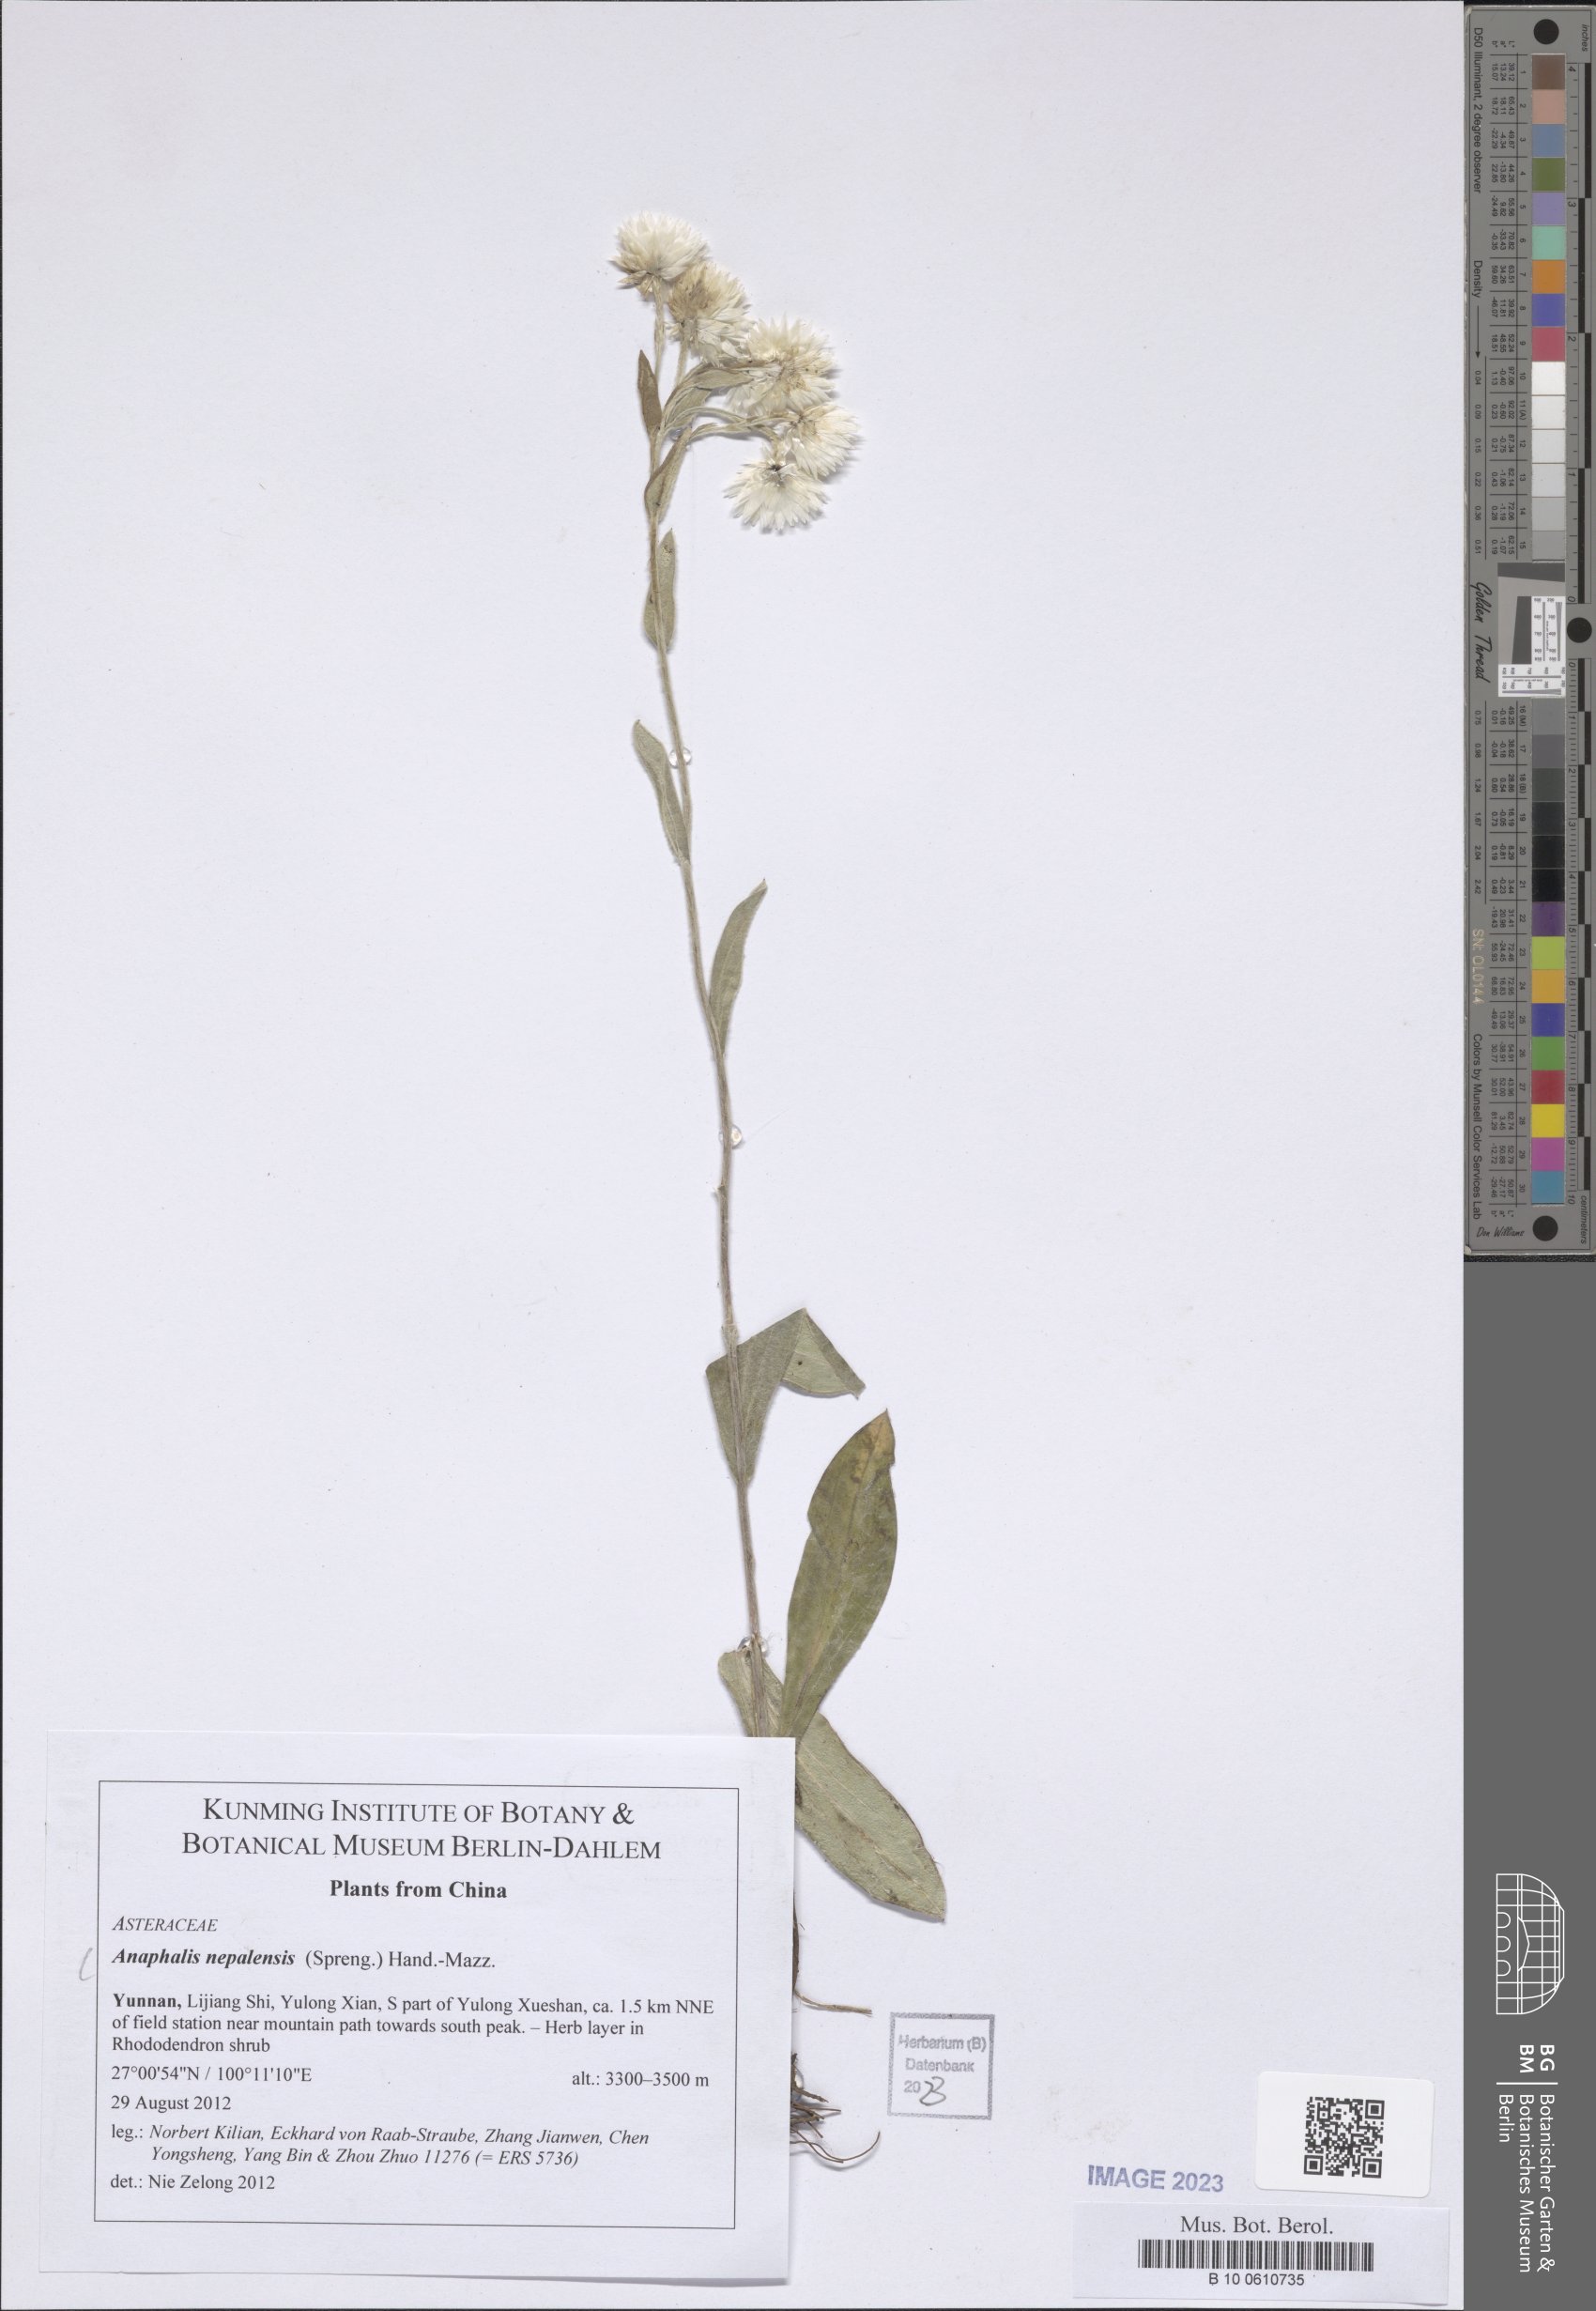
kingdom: Plantae
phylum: Tracheophyta
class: Magnoliopsida
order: Asterales
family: Asteraceae
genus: Anaphalis
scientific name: Anaphalis nepalensis
